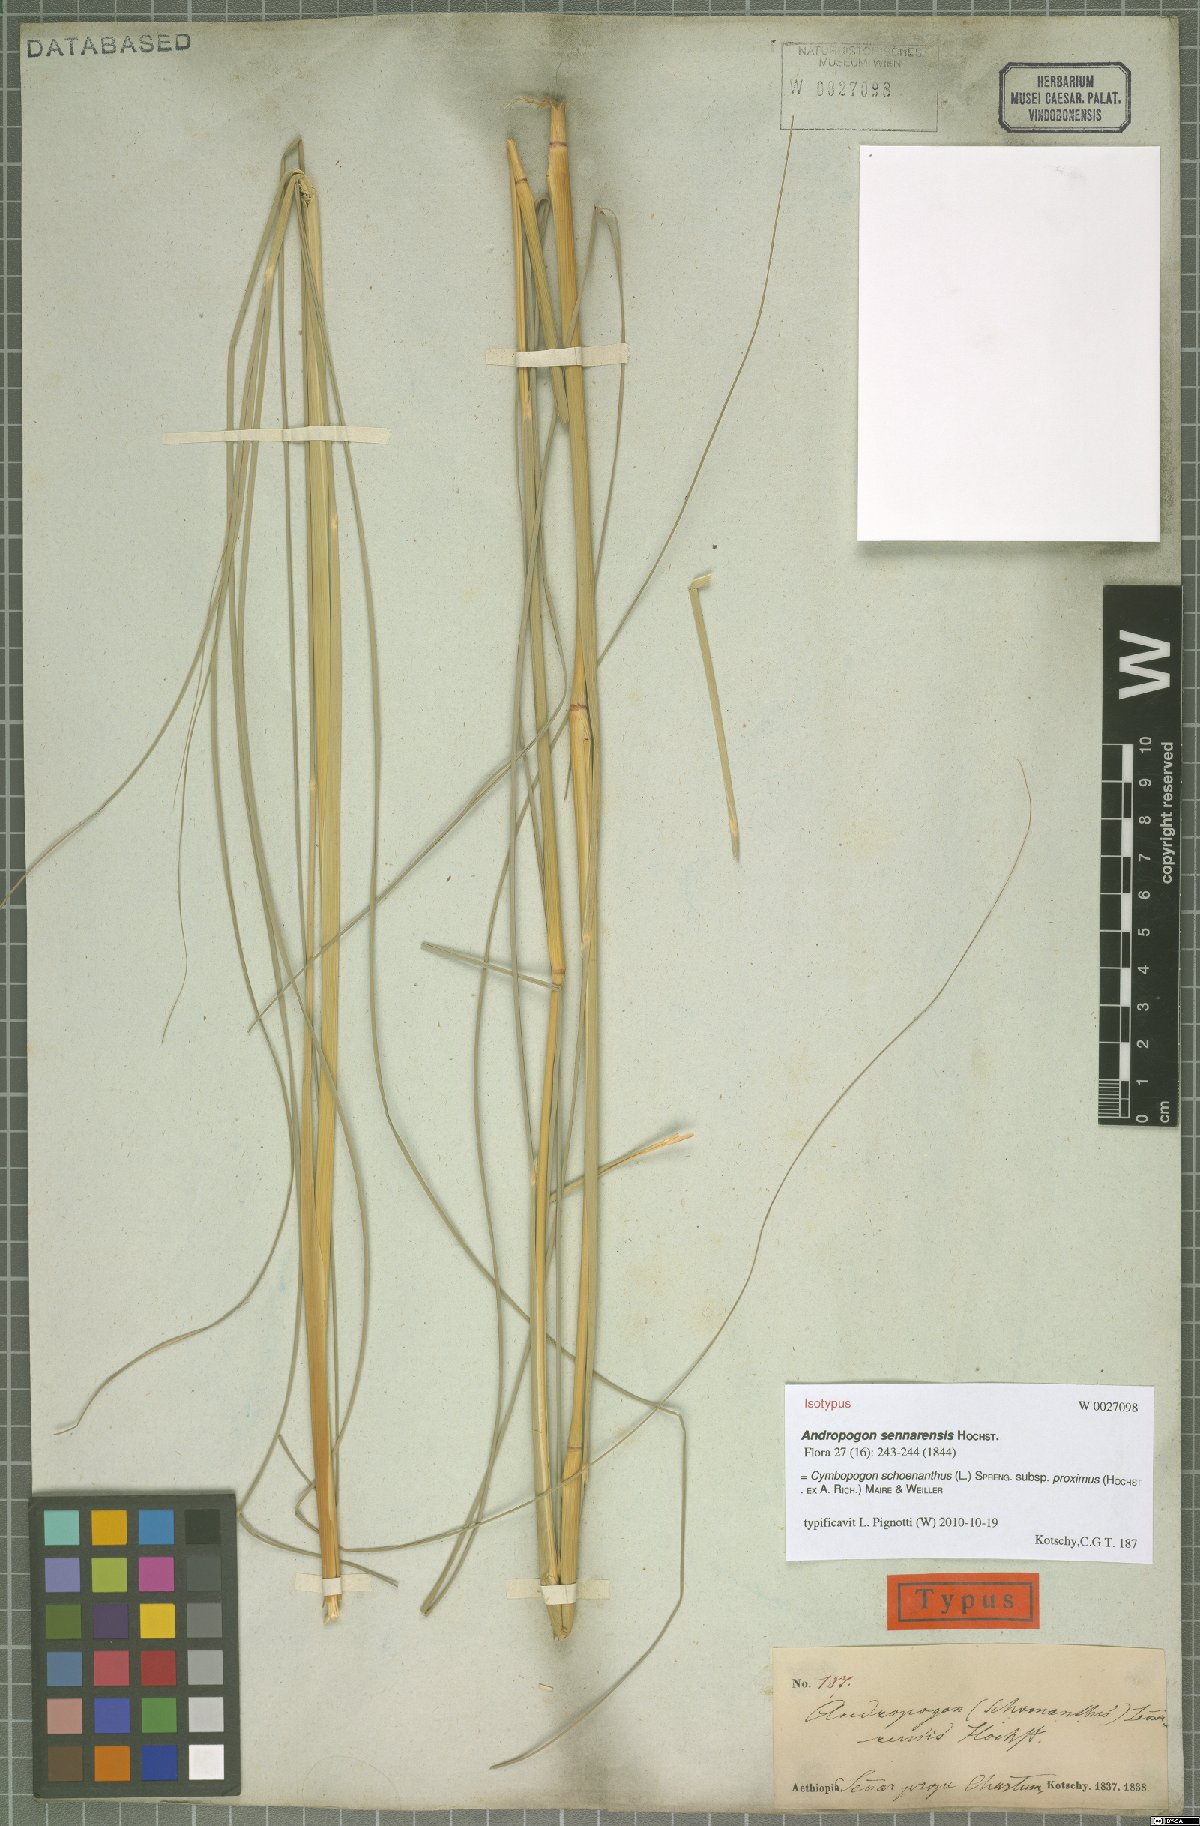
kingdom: Plantae
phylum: Tracheophyta
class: Liliopsida
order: Poales
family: Poaceae
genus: Cymbopogon
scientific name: Cymbopogon schoenanthus
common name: Geranium grass
